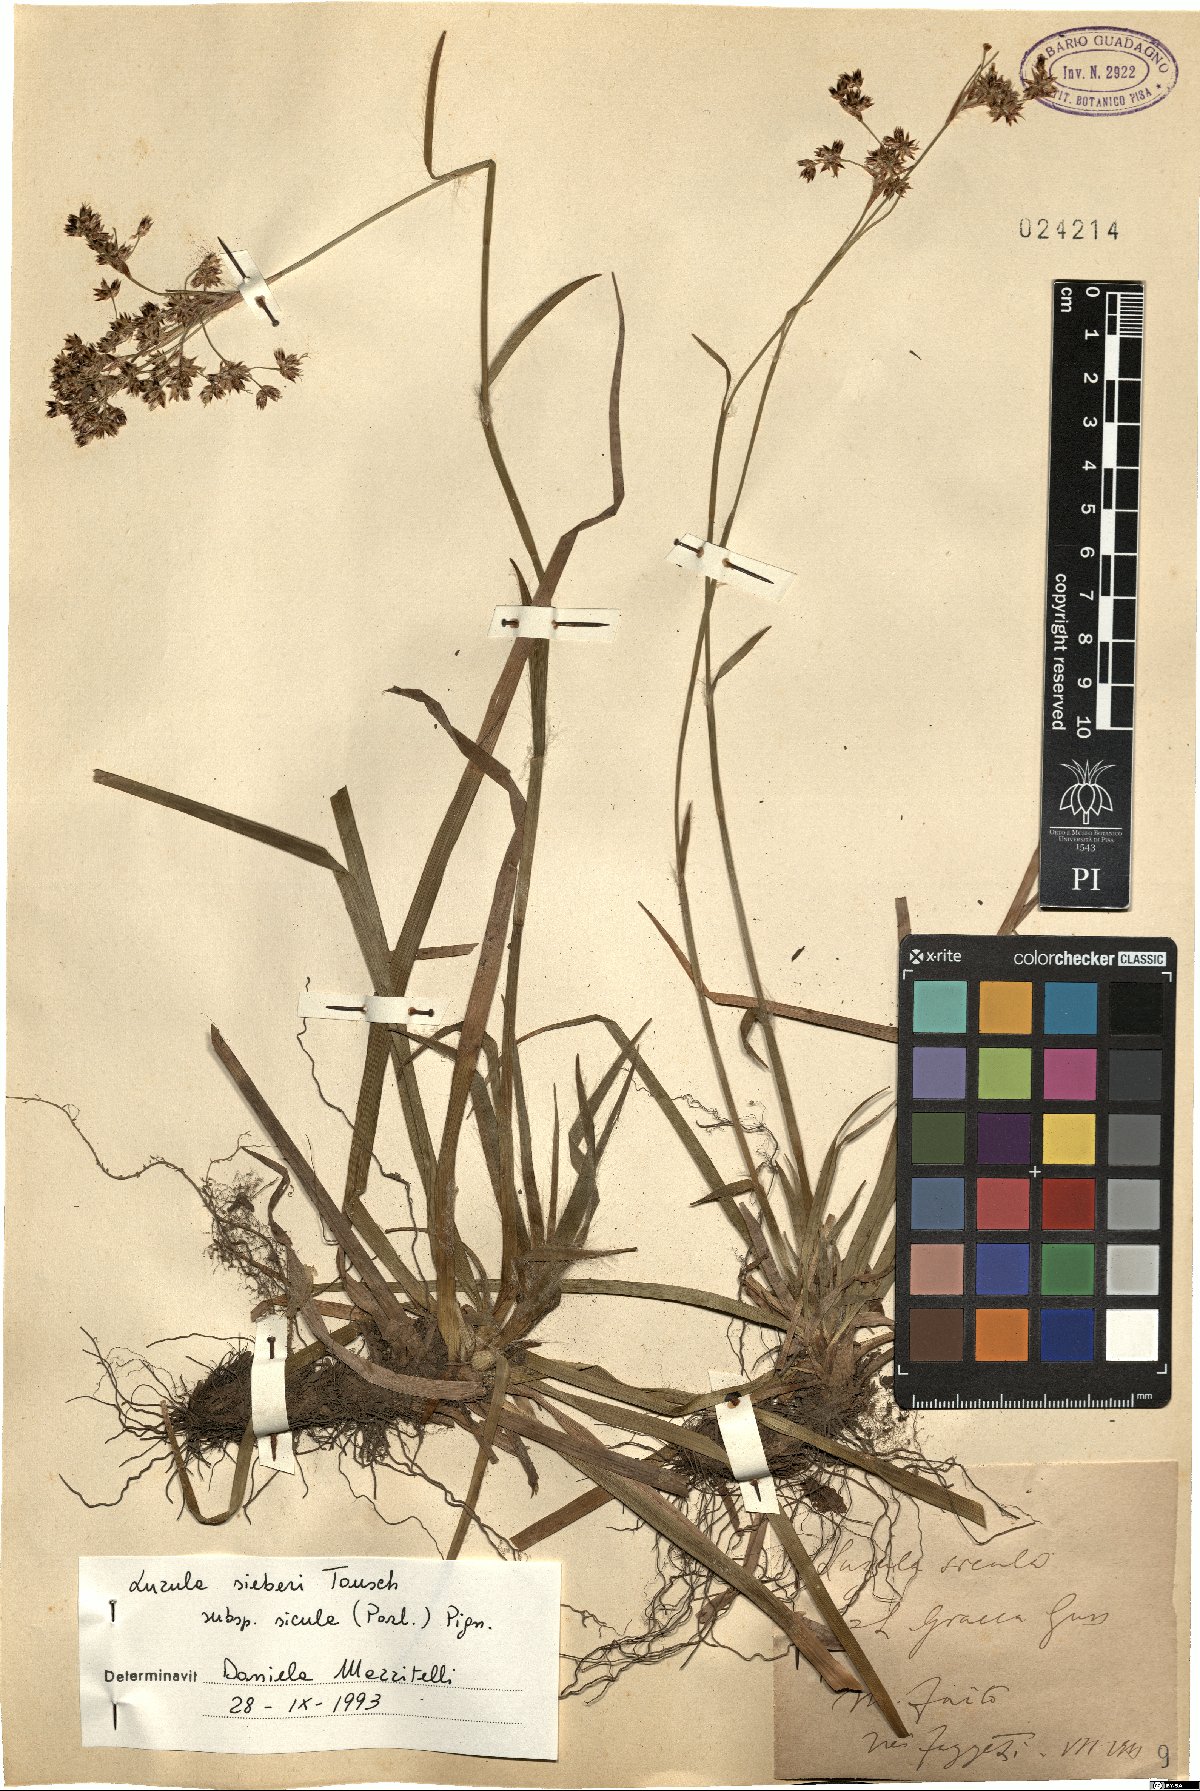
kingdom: Plantae
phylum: Tracheophyta
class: Liliopsida
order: Poales
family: Juncaceae
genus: Luzula
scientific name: Luzula sylvatica
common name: Great wood-rush
